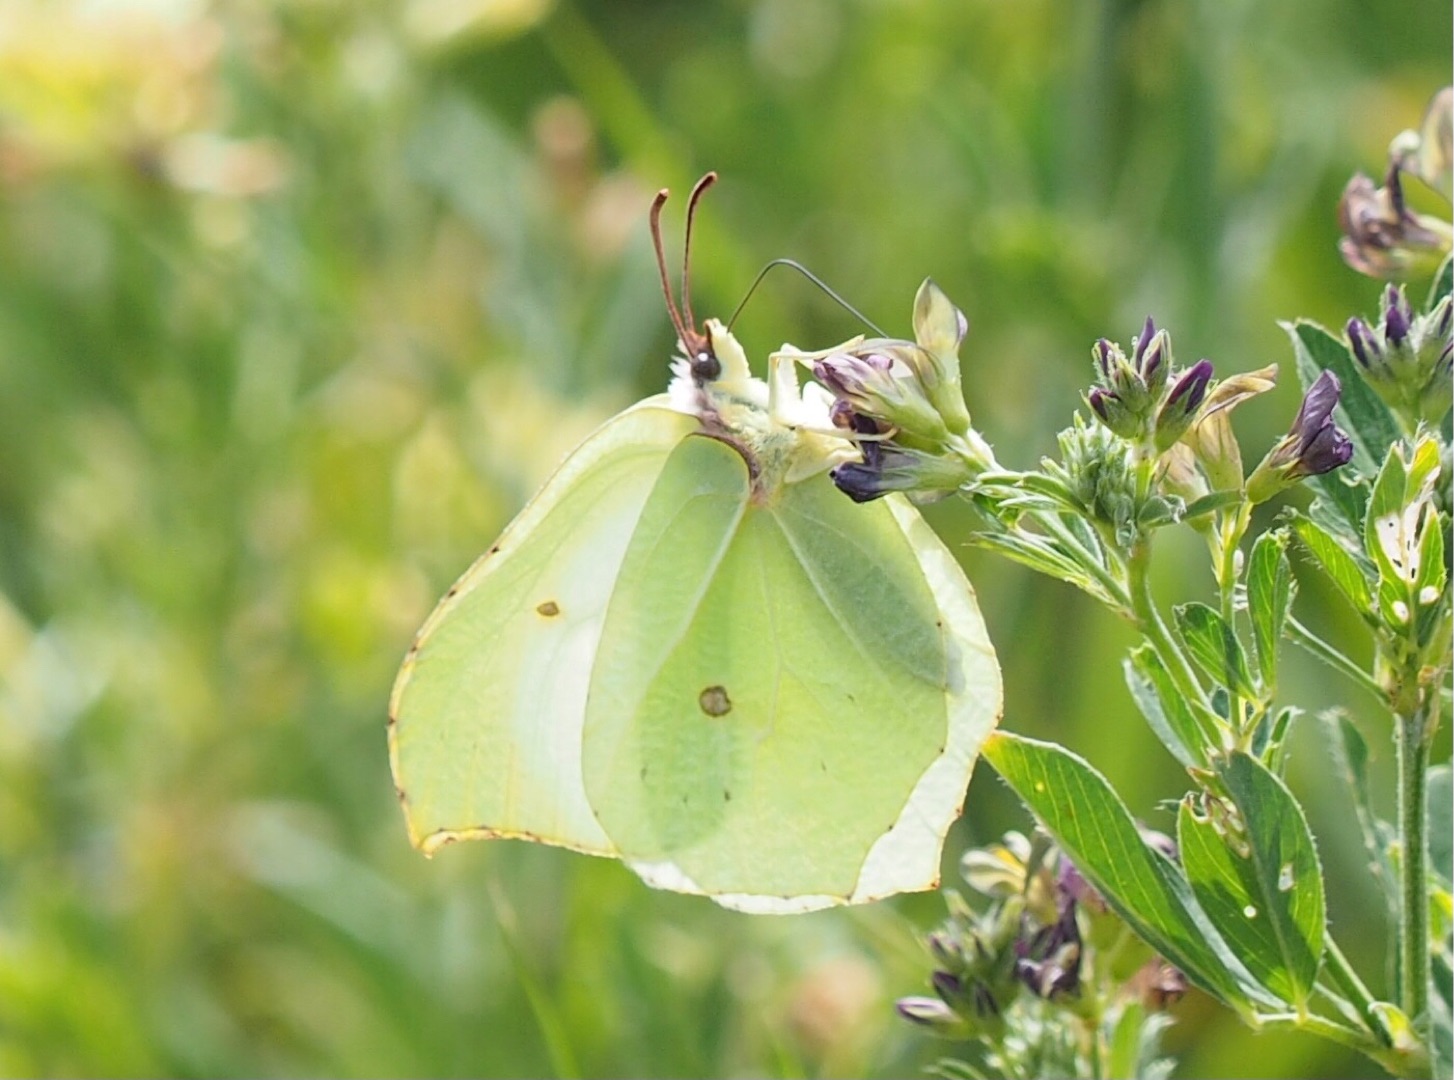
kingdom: Animalia
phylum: Arthropoda
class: Insecta
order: Lepidoptera
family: Pieridae
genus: Gonepteryx
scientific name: Gonepteryx rhamni
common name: Citronsommerfugl
